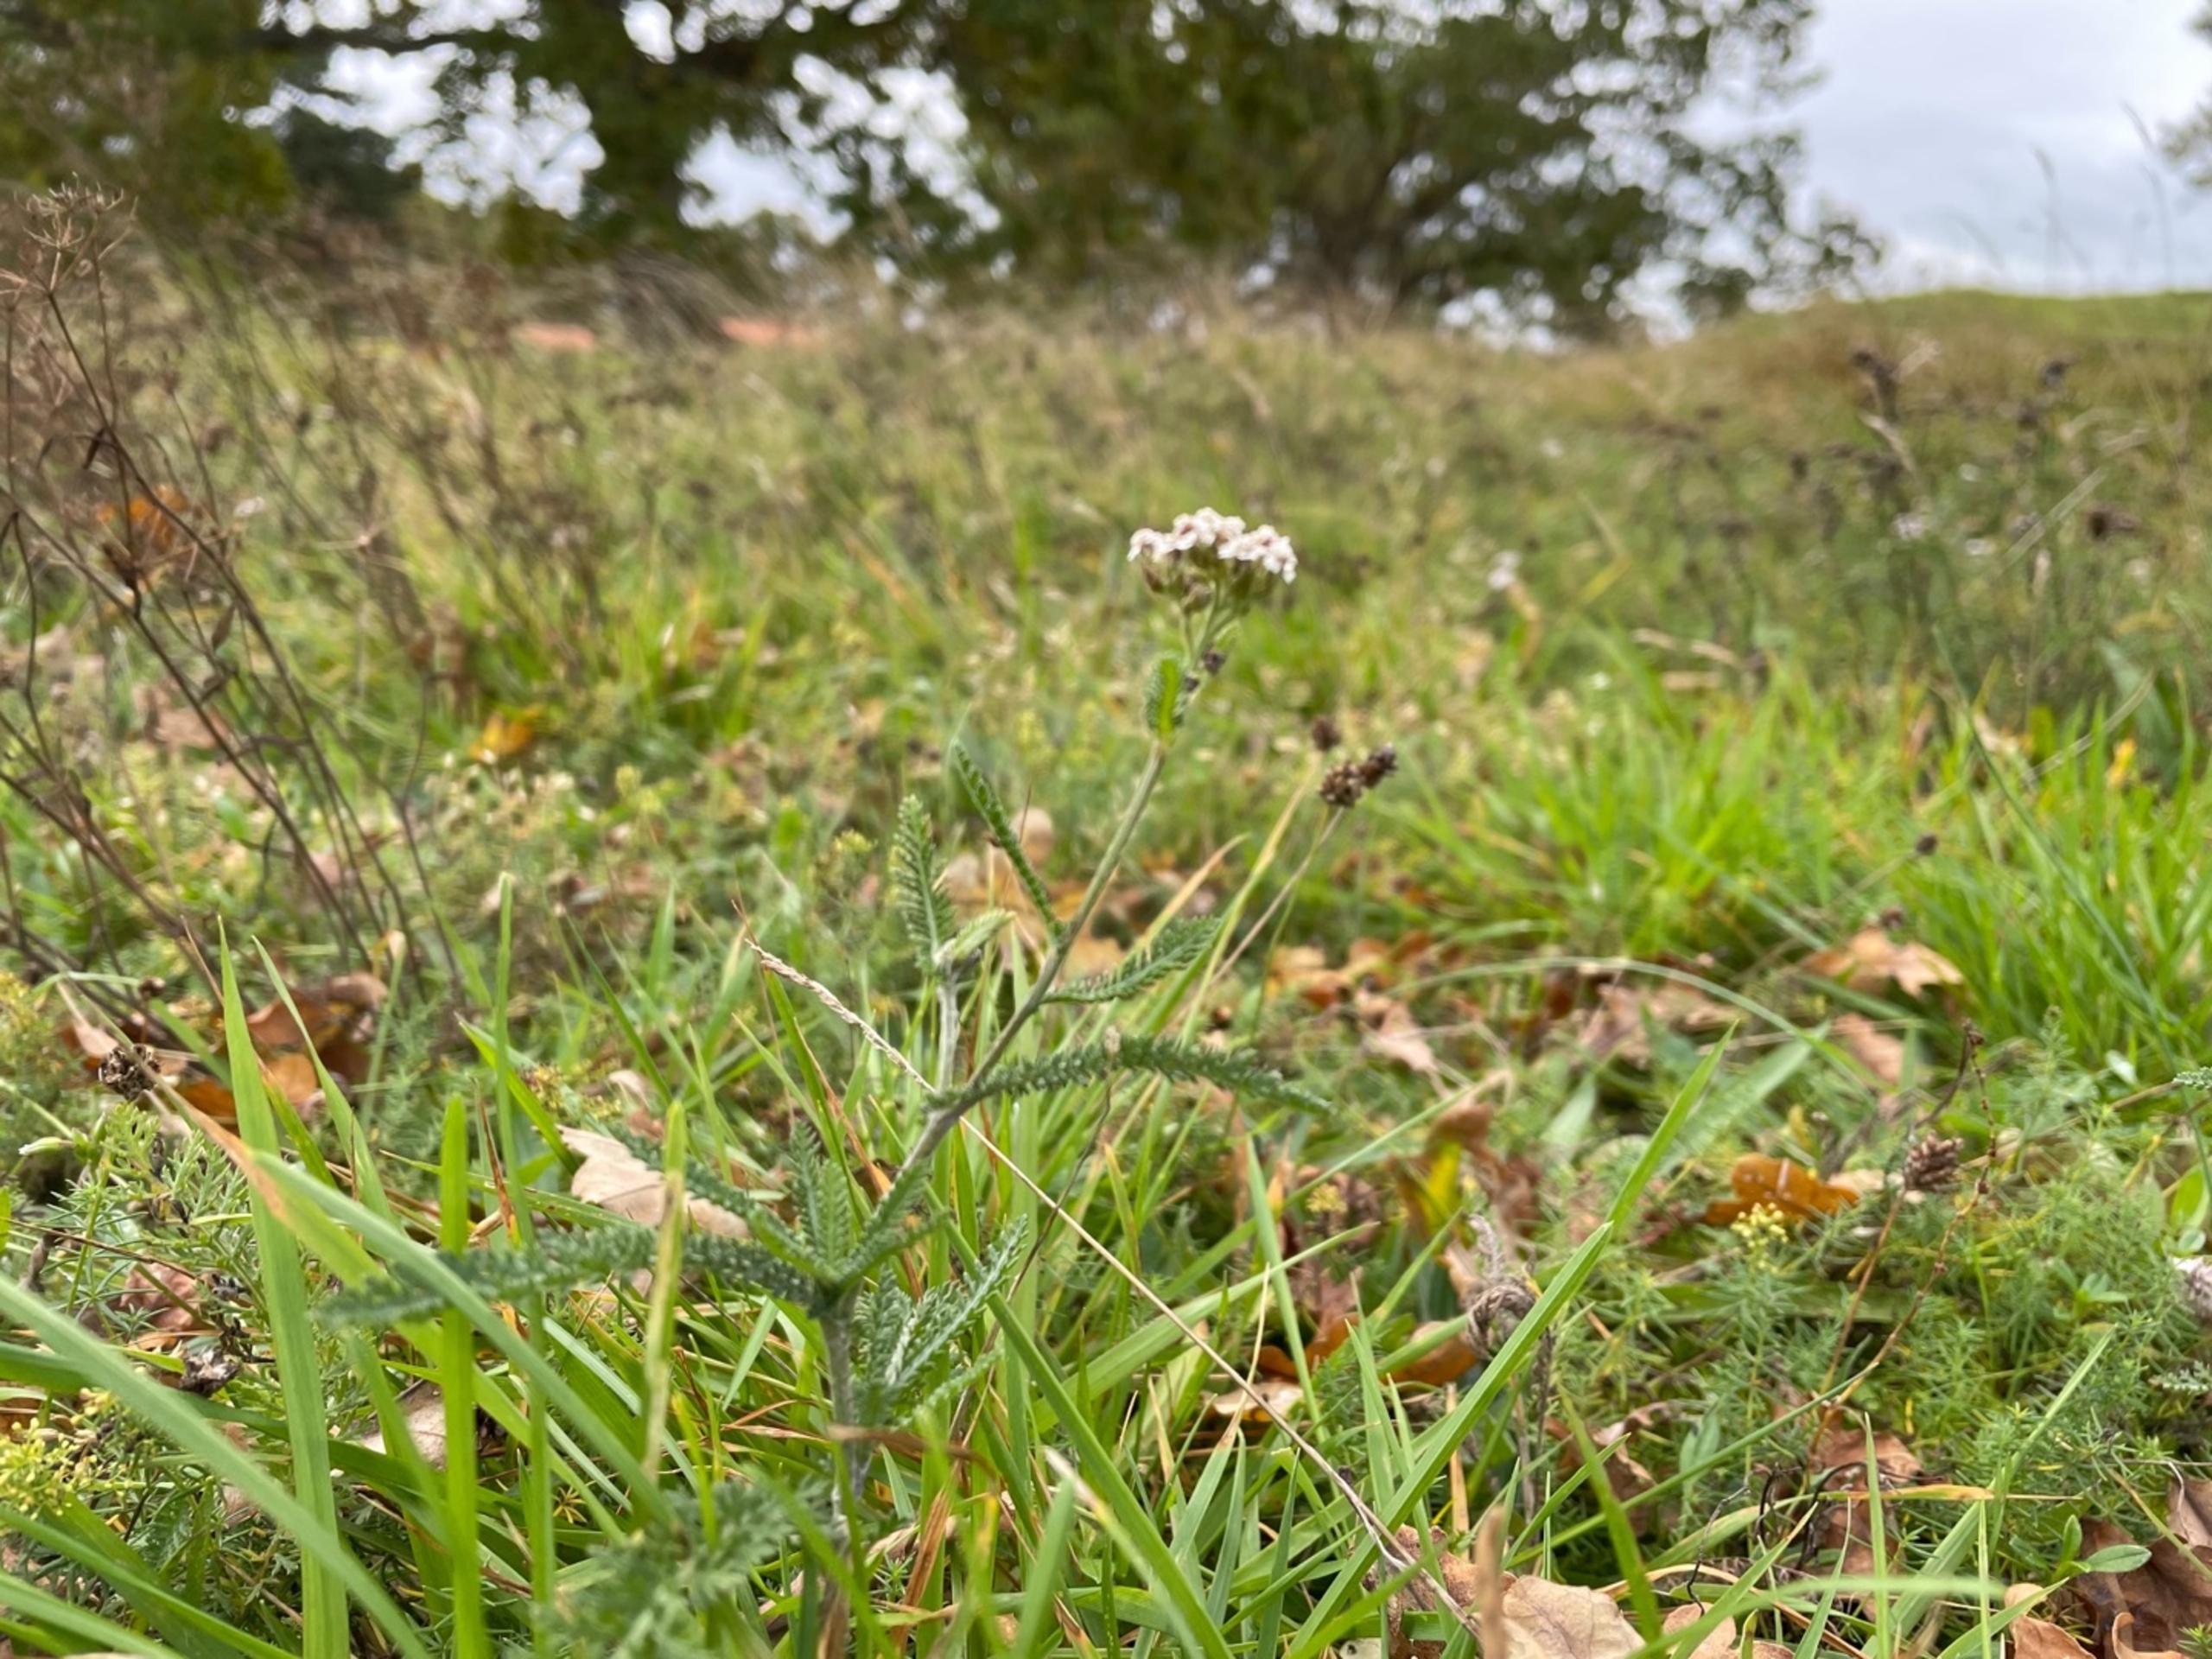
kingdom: Plantae
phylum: Tracheophyta
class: Magnoliopsida
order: Asterales
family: Asteraceae
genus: Achillea
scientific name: Achillea millefolium
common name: Almindelig røllike
